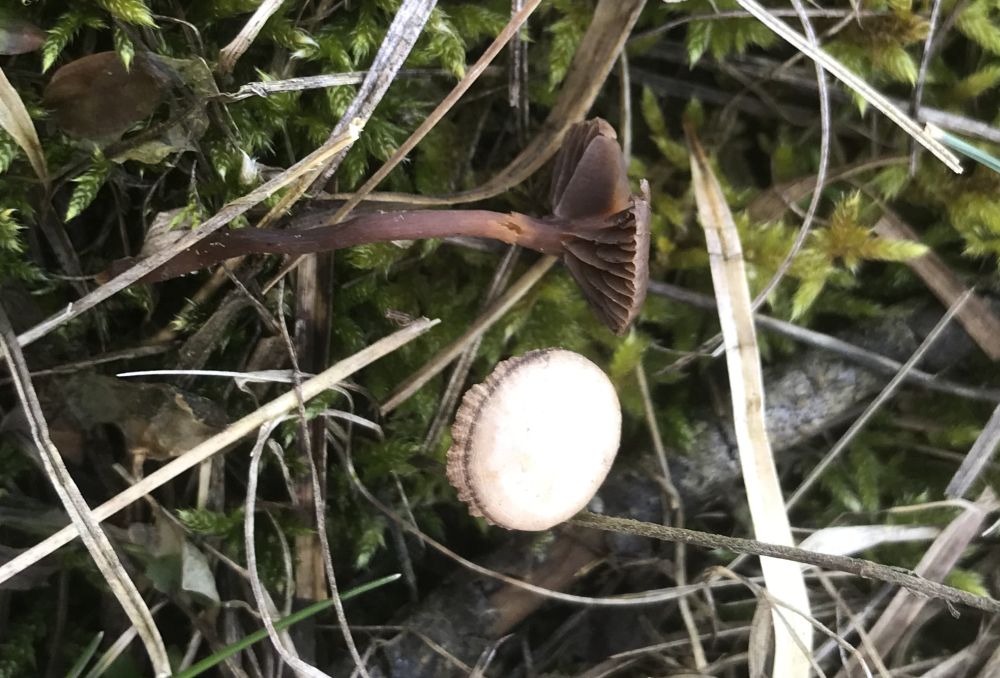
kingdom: Fungi
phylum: Basidiomycota
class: Agaricomycetes
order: Agaricales
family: Strophariaceae
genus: Deconica
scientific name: Deconica
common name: stråhat
